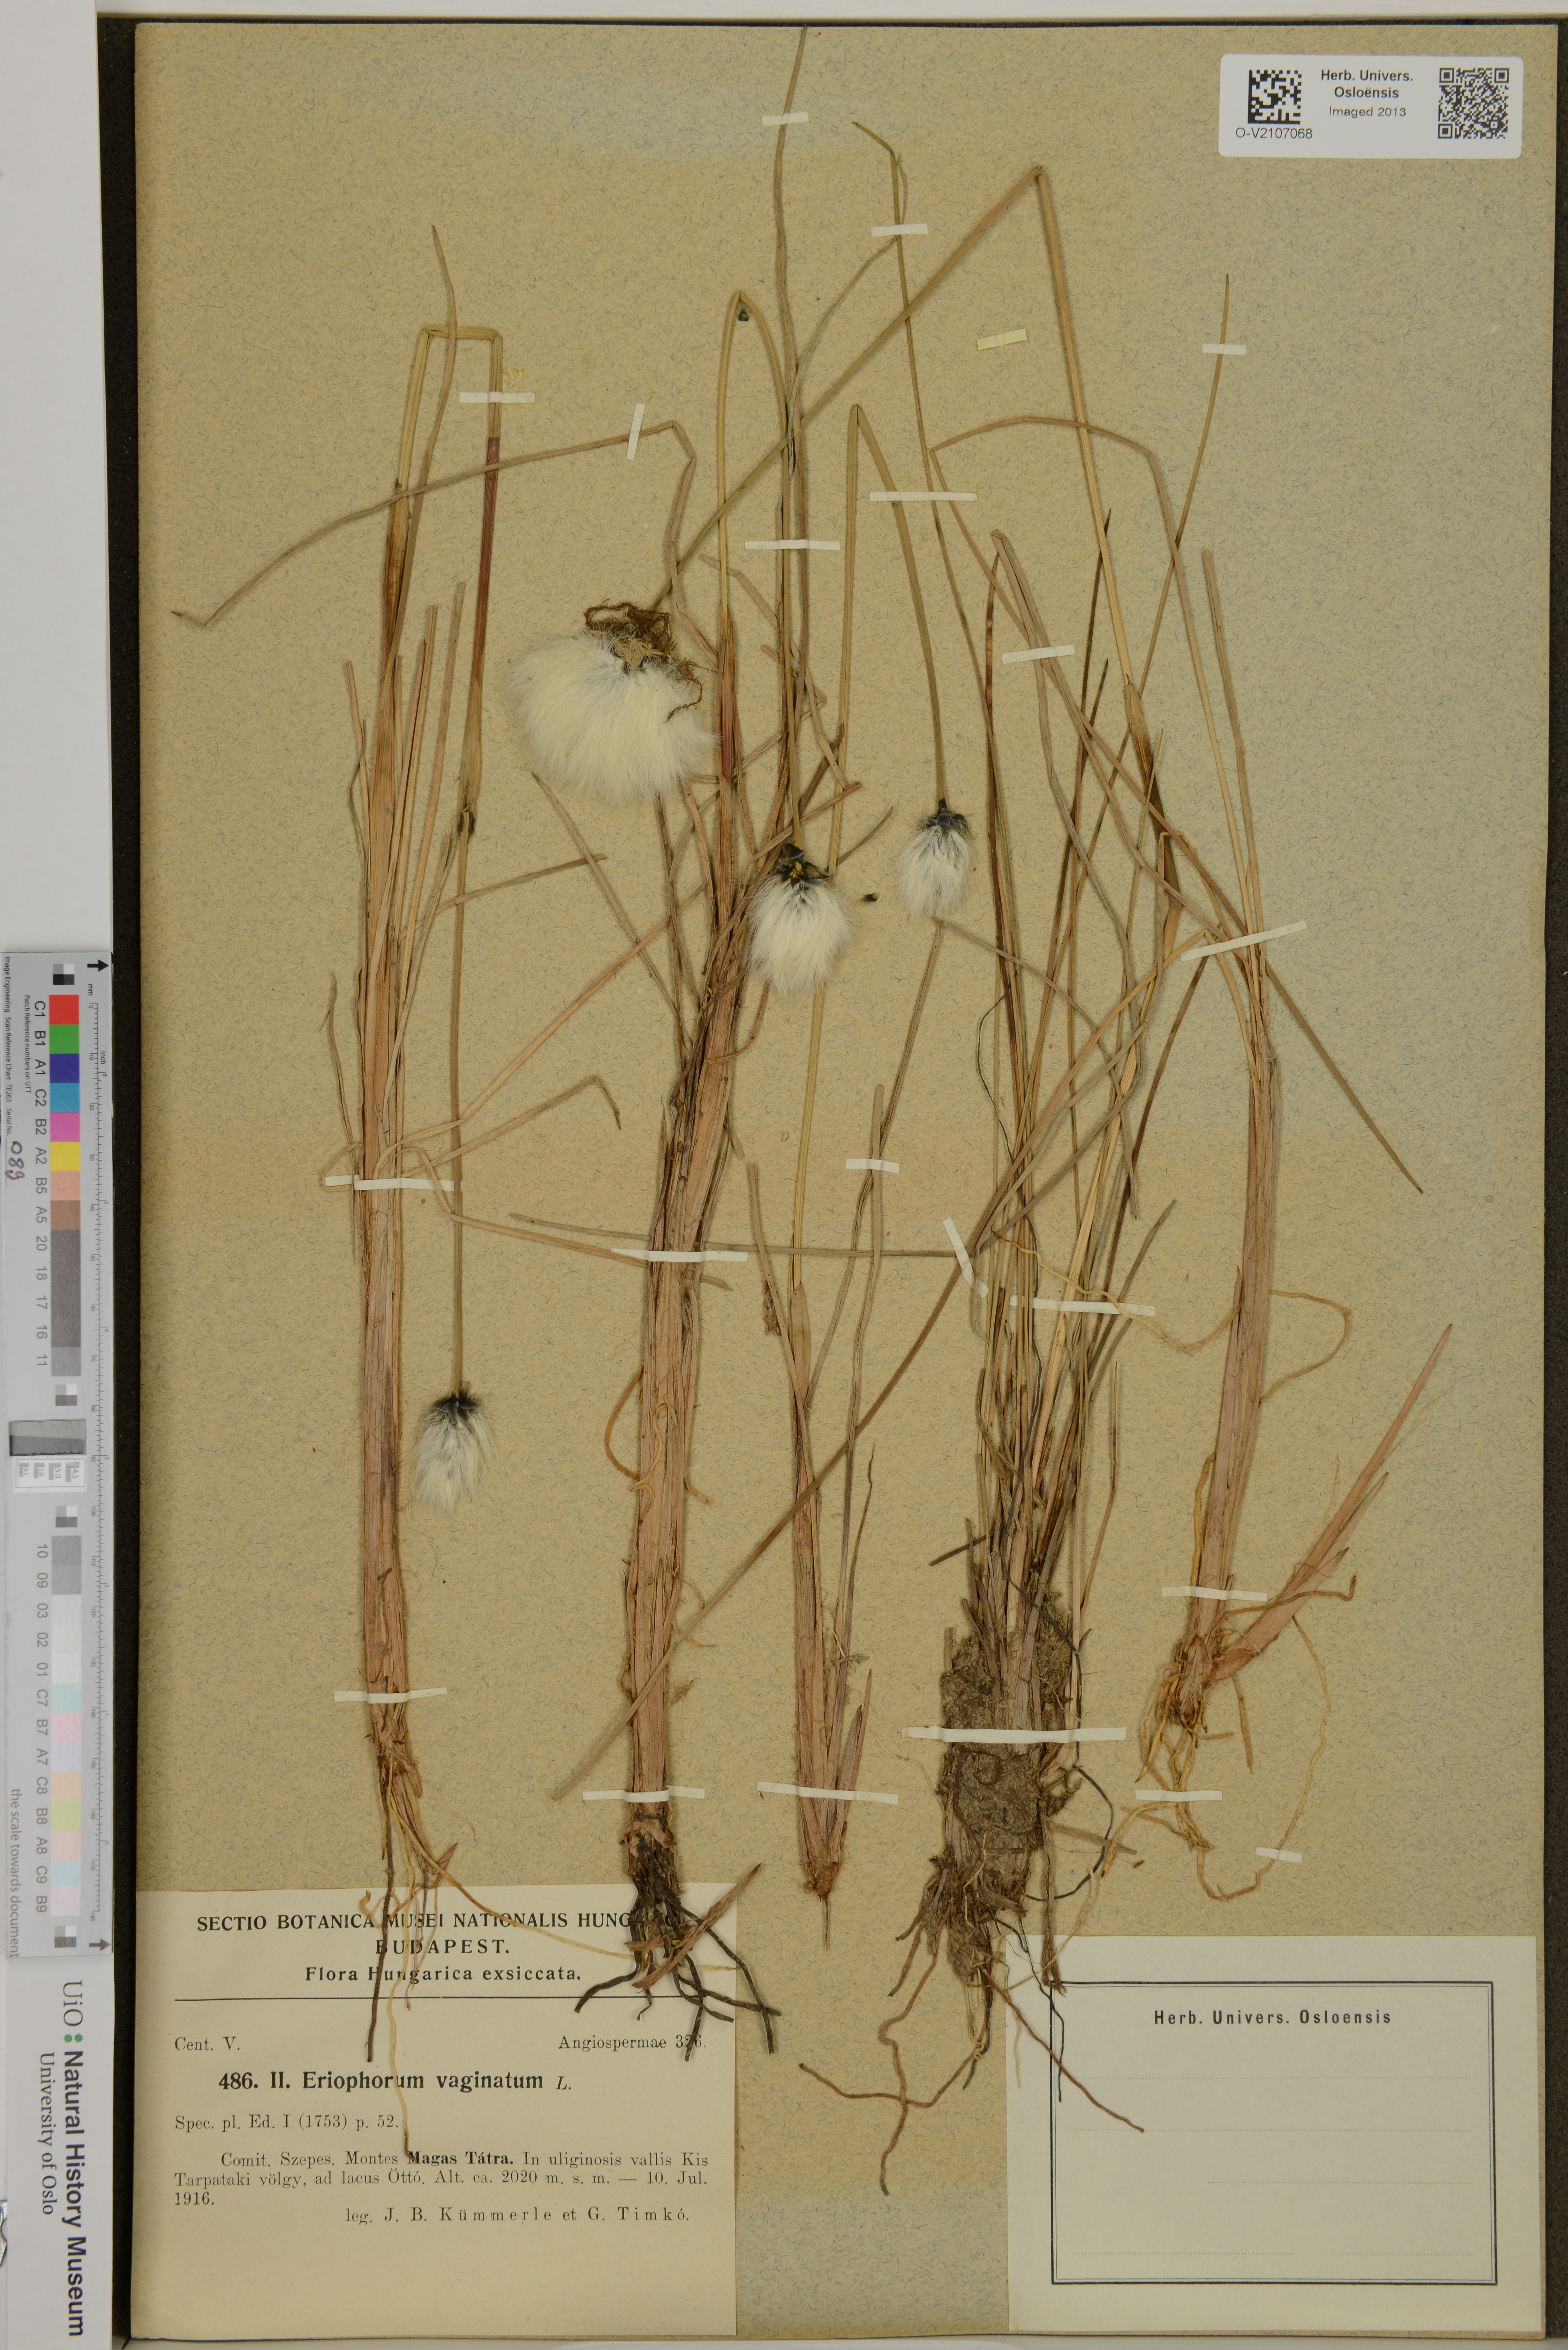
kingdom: Plantae
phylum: Tracheophyta
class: Liliopsida
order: Poales
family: Cyperaceae
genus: Eriophorum
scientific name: Eriophorum vaginatum
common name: Hare's-tail cottongrass
